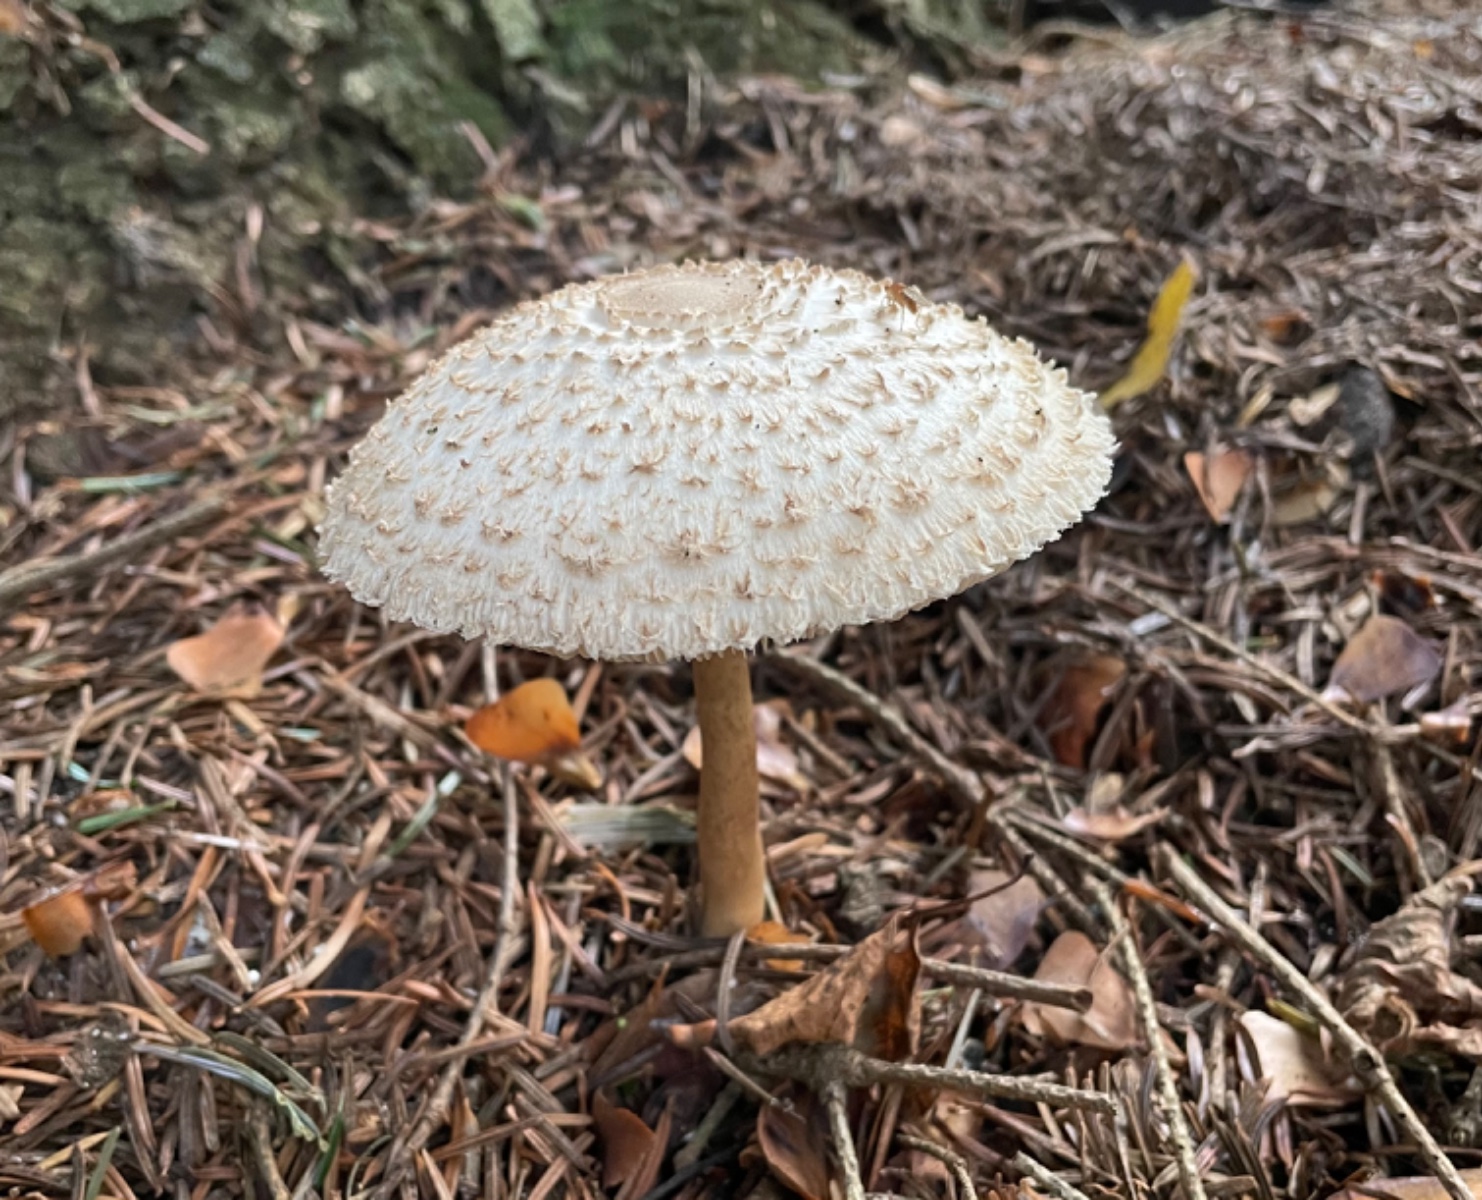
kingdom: Fungi
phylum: Basidiomycota
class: Agaricomycetes
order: Agaricales
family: Agaricaceae
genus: Leucoagaricus
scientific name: Leucoagaricus nympharum
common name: gran-silkehat
